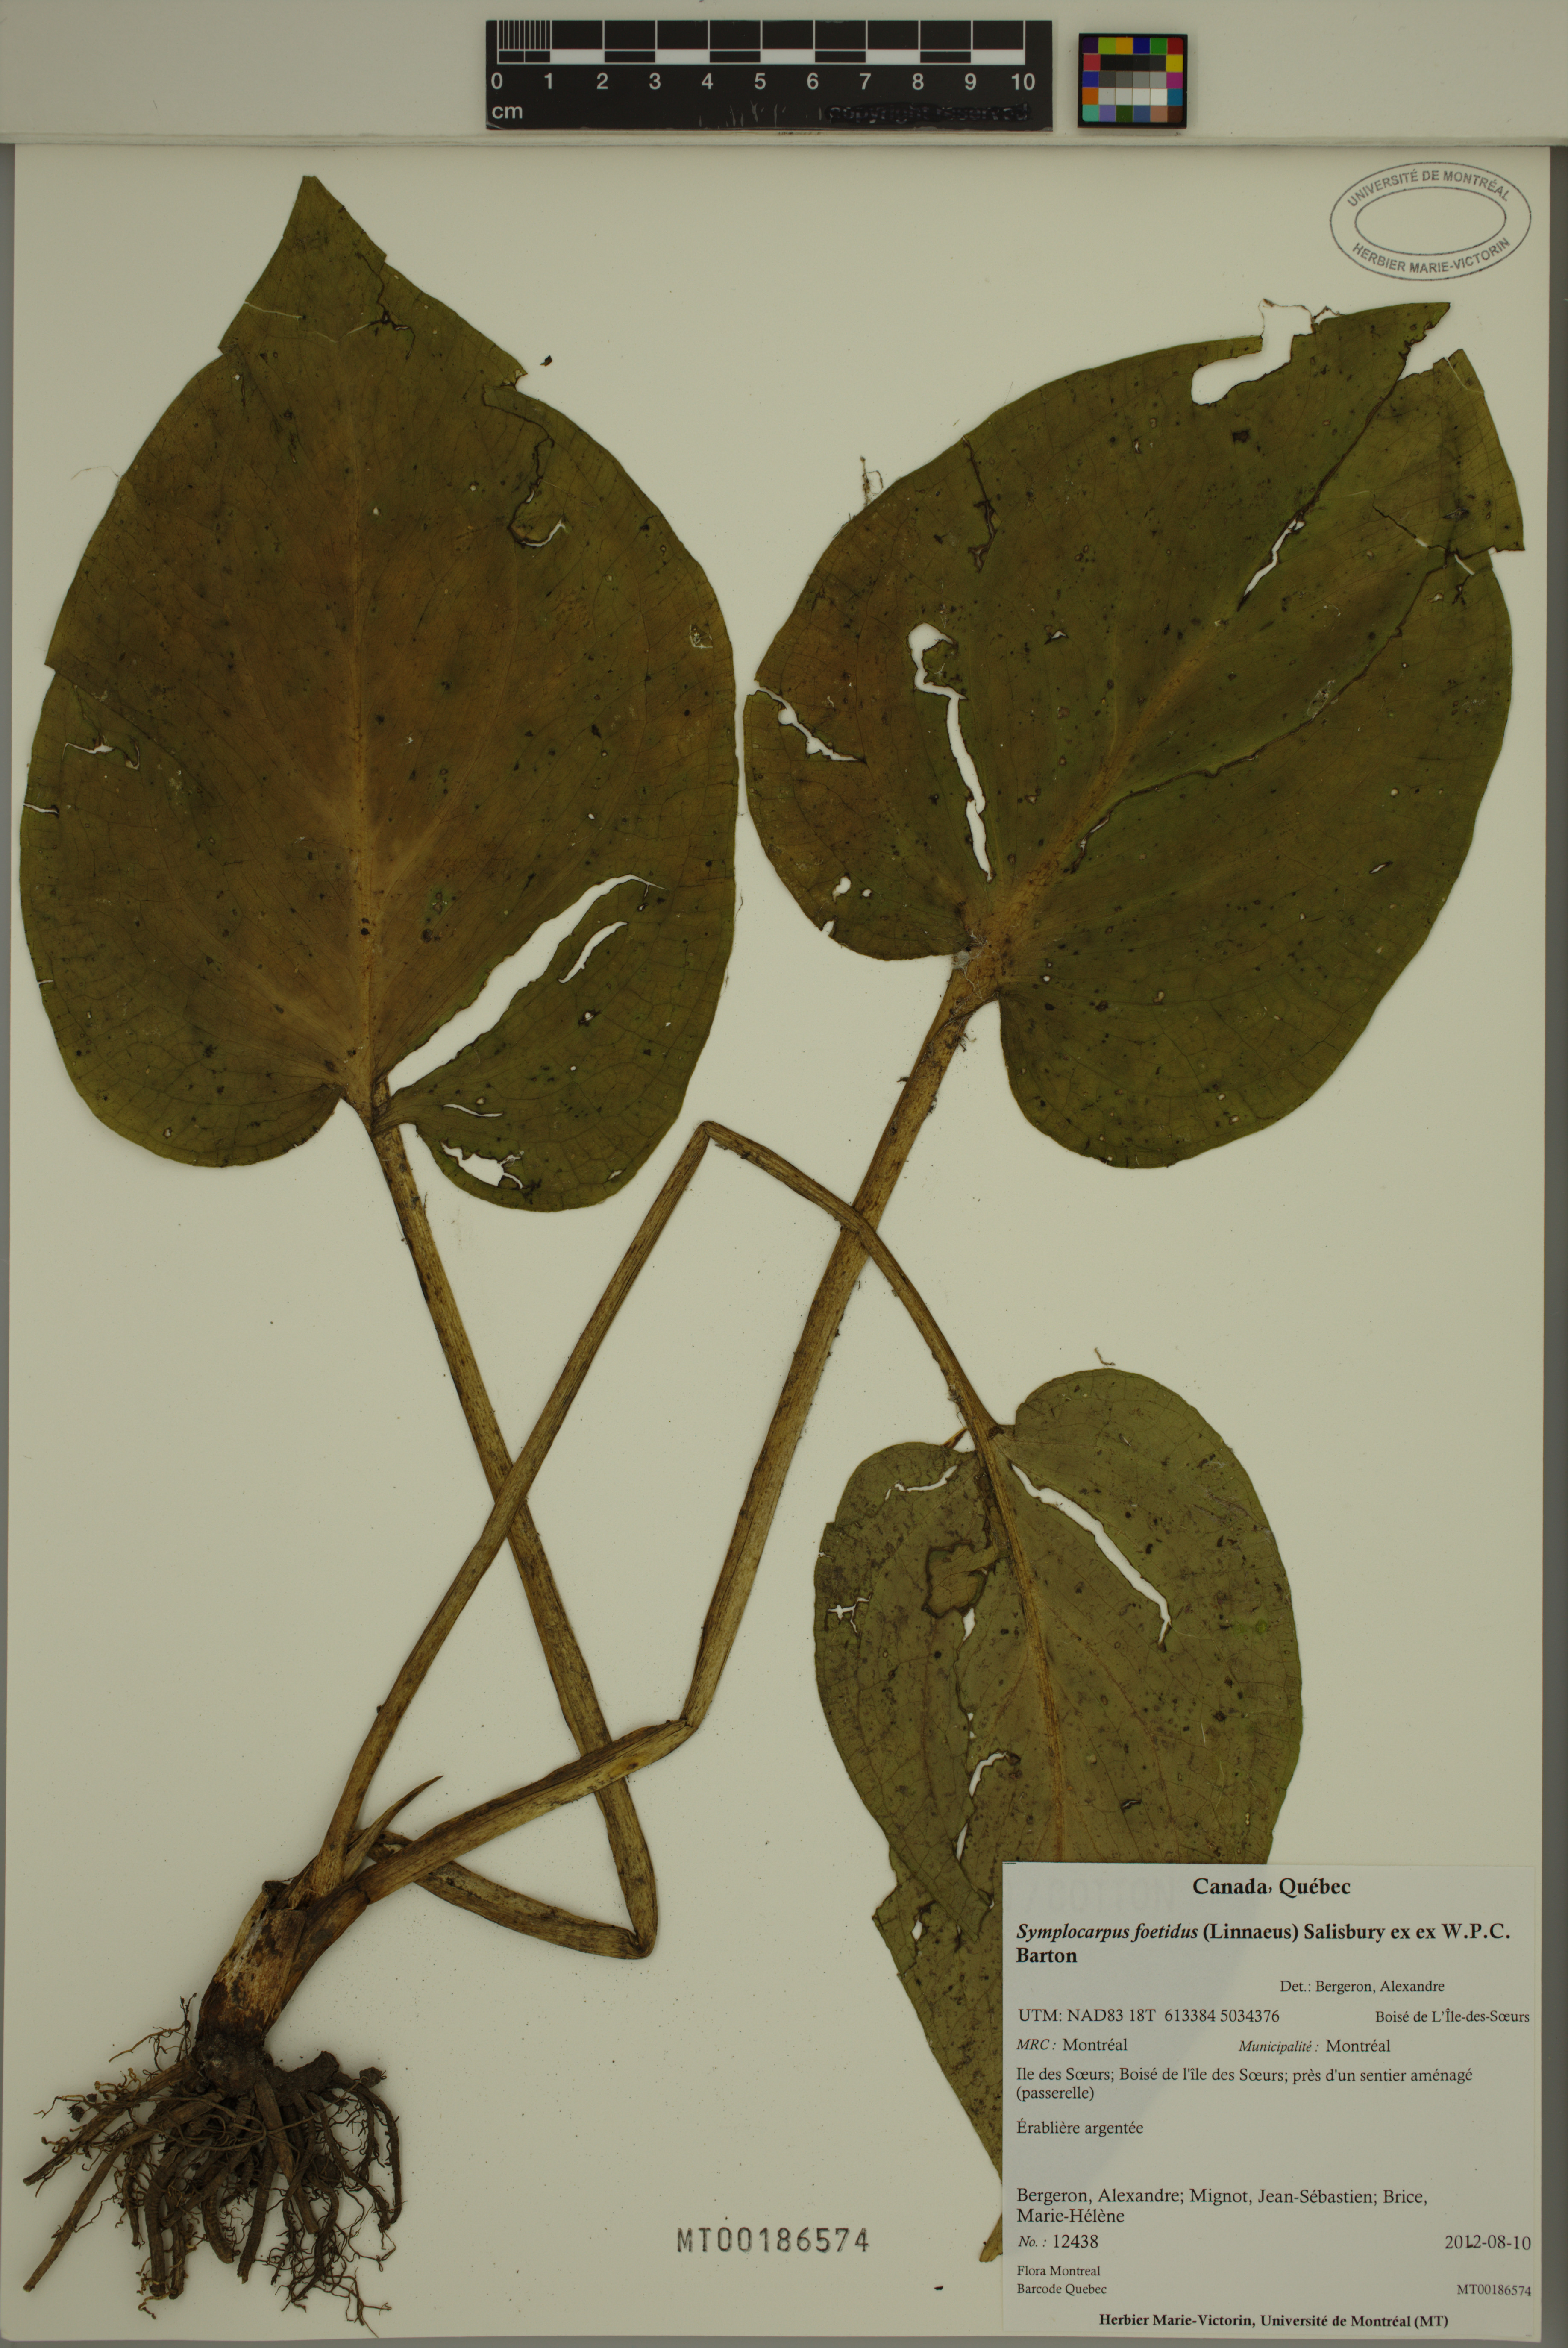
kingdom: Plantae
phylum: Tracheophyta
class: Liliopsida
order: Alismatales
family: Araceae
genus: Symplocarpus
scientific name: Symplocarpus foetidus
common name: Eastern skunk cabbage
